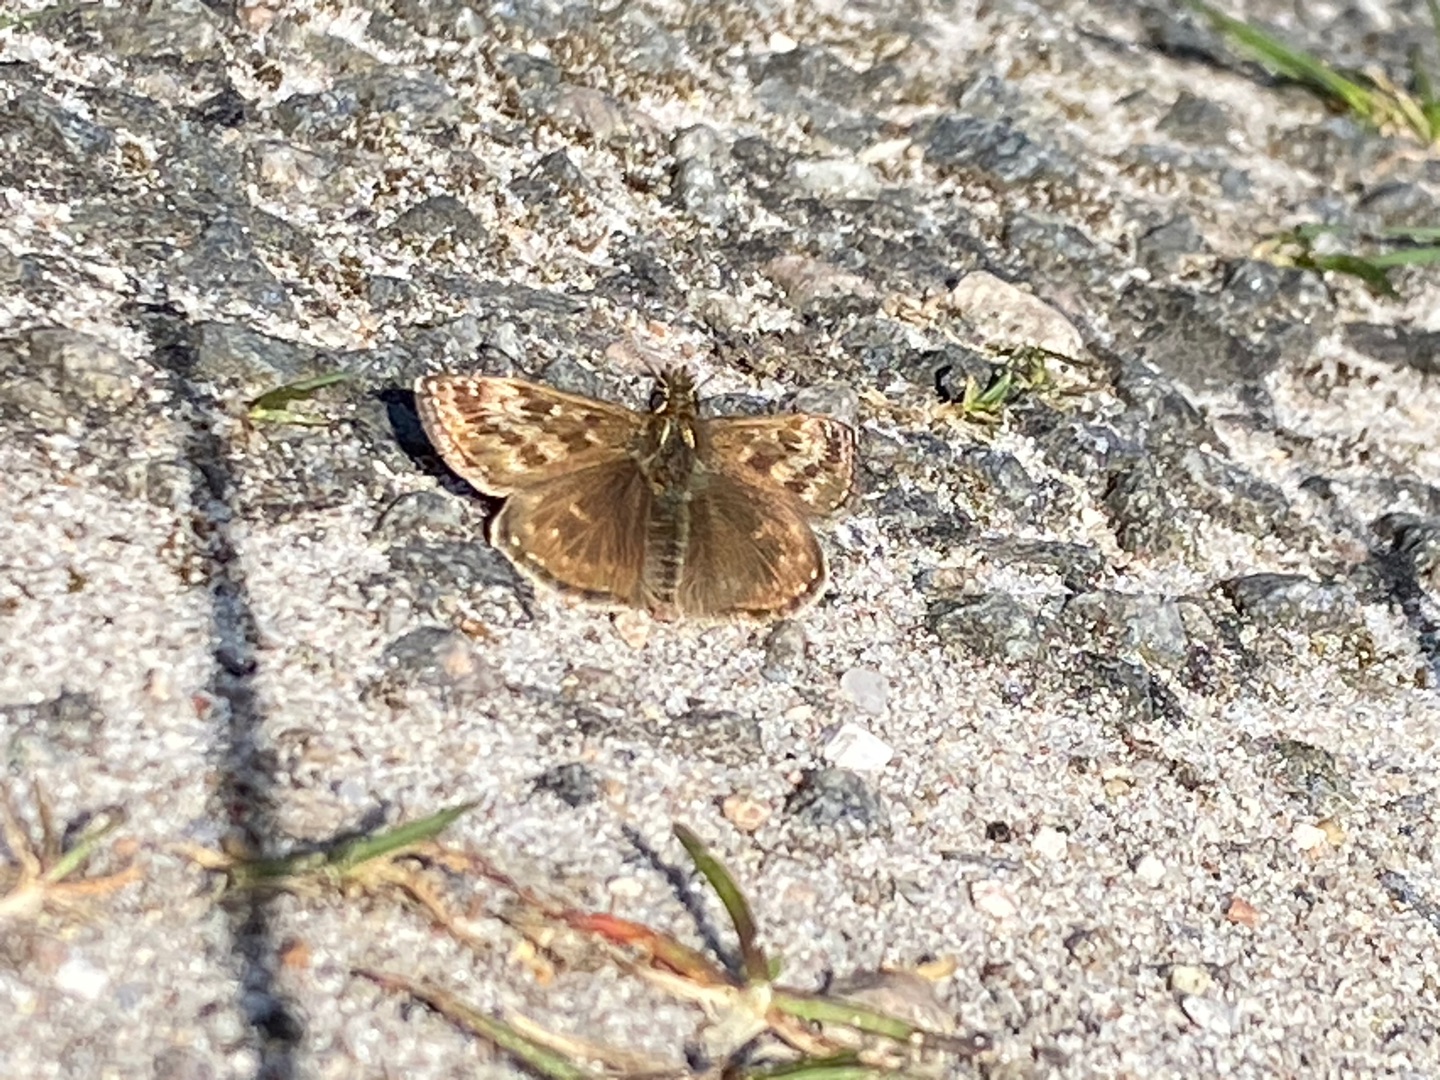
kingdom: Animalia
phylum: Arthropoda
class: Insecta
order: Lepidoptera
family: Hesperiidae
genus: Erynnis
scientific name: Erynnis tages
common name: Gråbåndet bredpande
